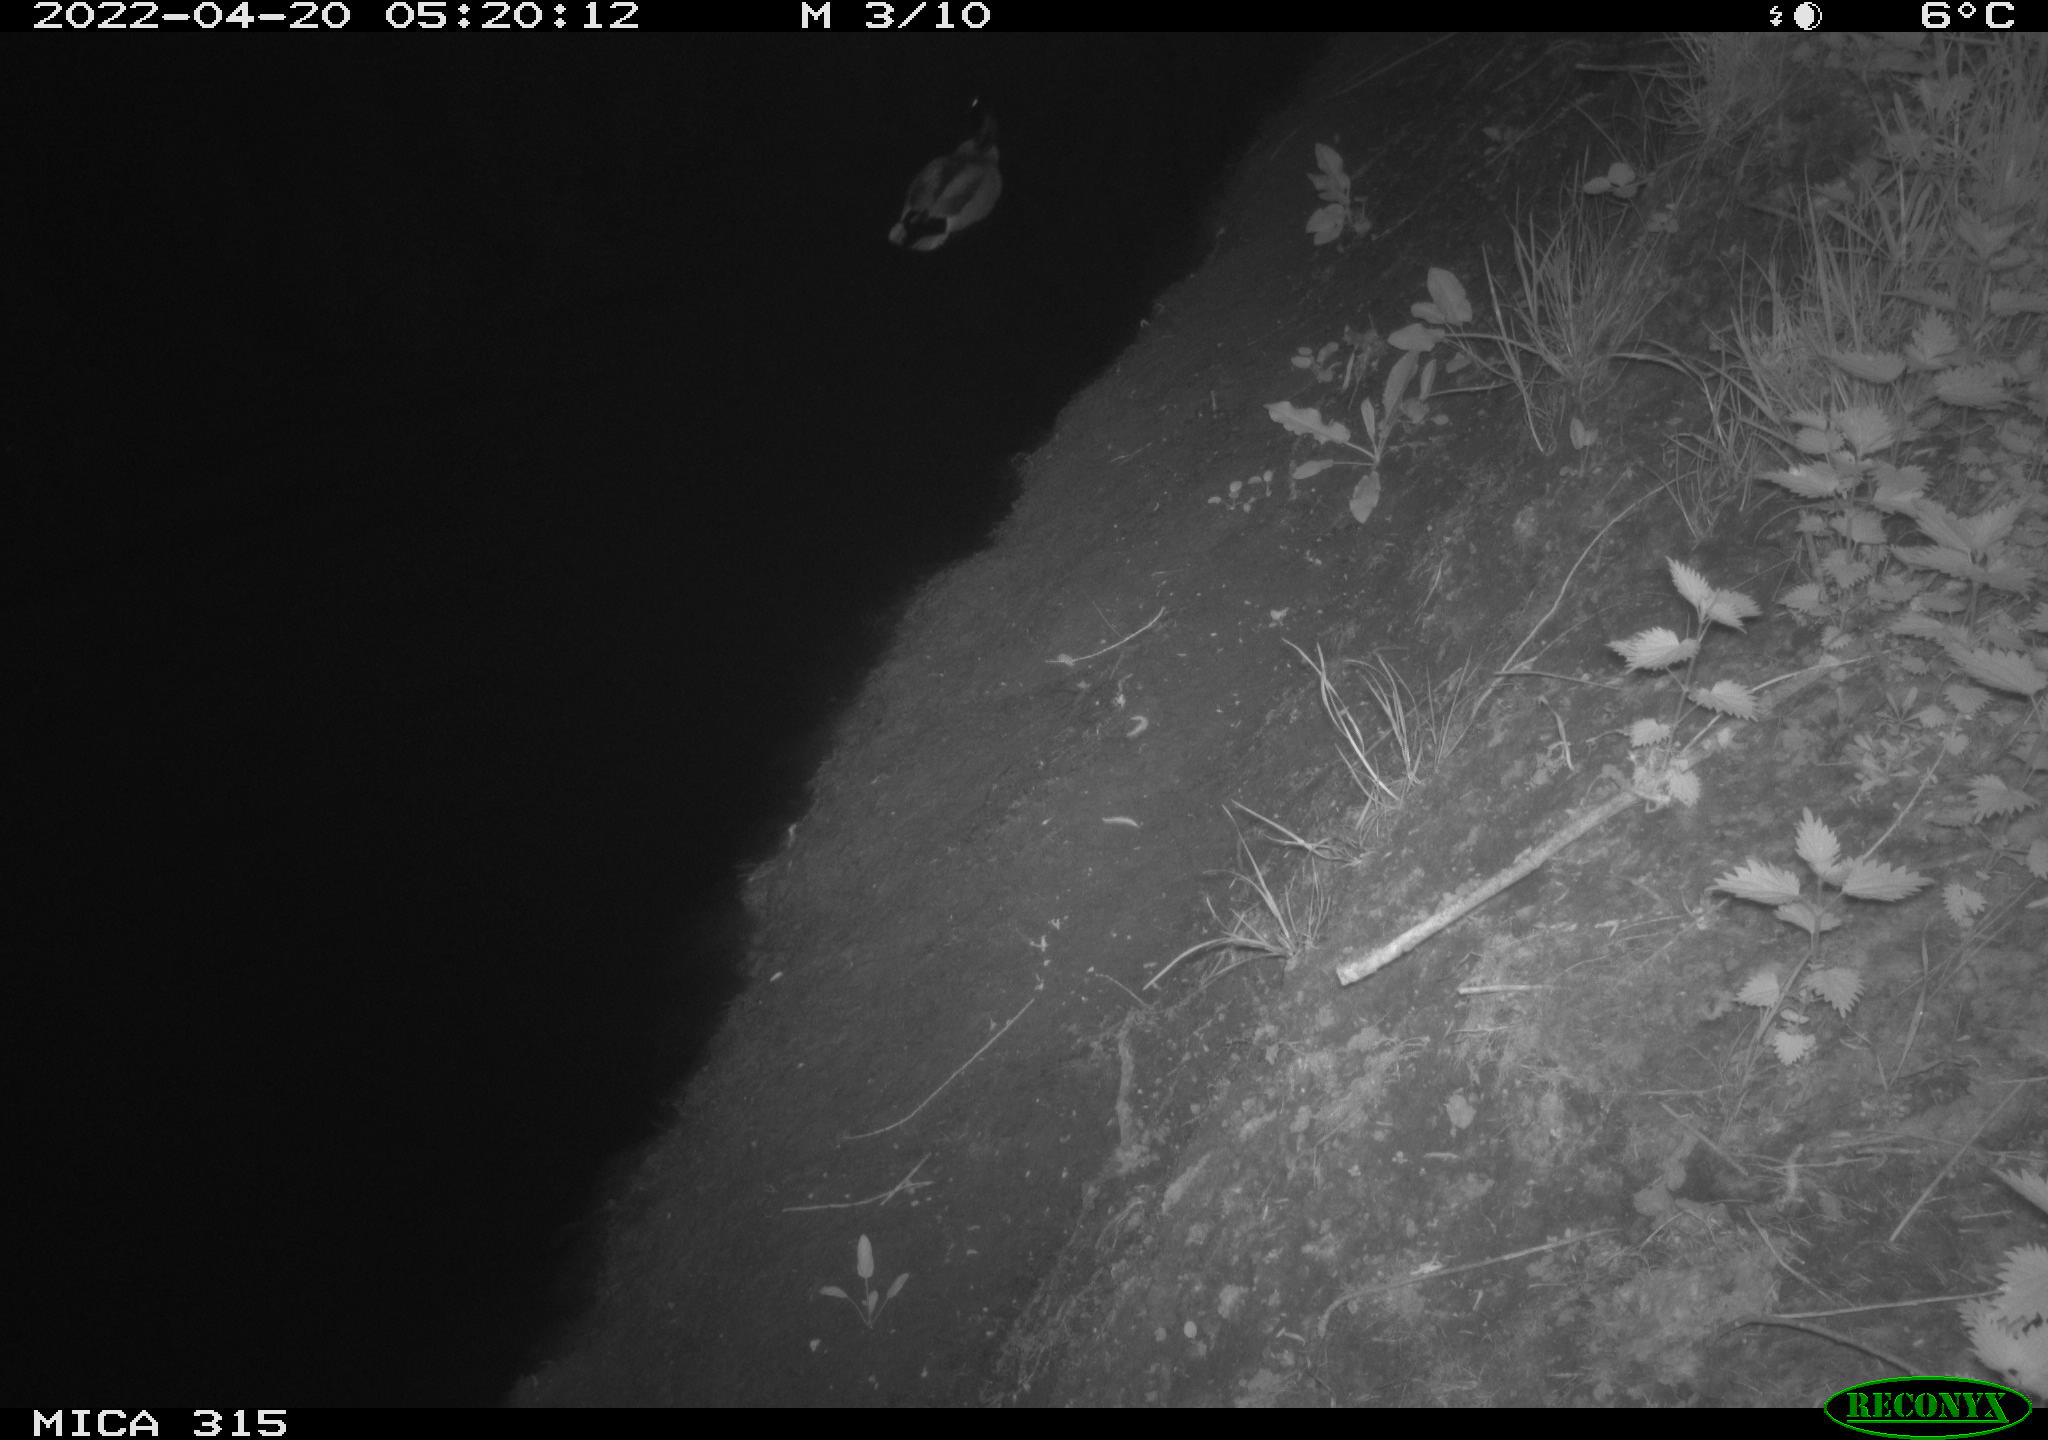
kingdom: Animalia
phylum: Chordata
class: Aves
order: Anseriformes
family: Anatidae
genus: Anas
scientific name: Anas platyrhynchos
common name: Mallard
